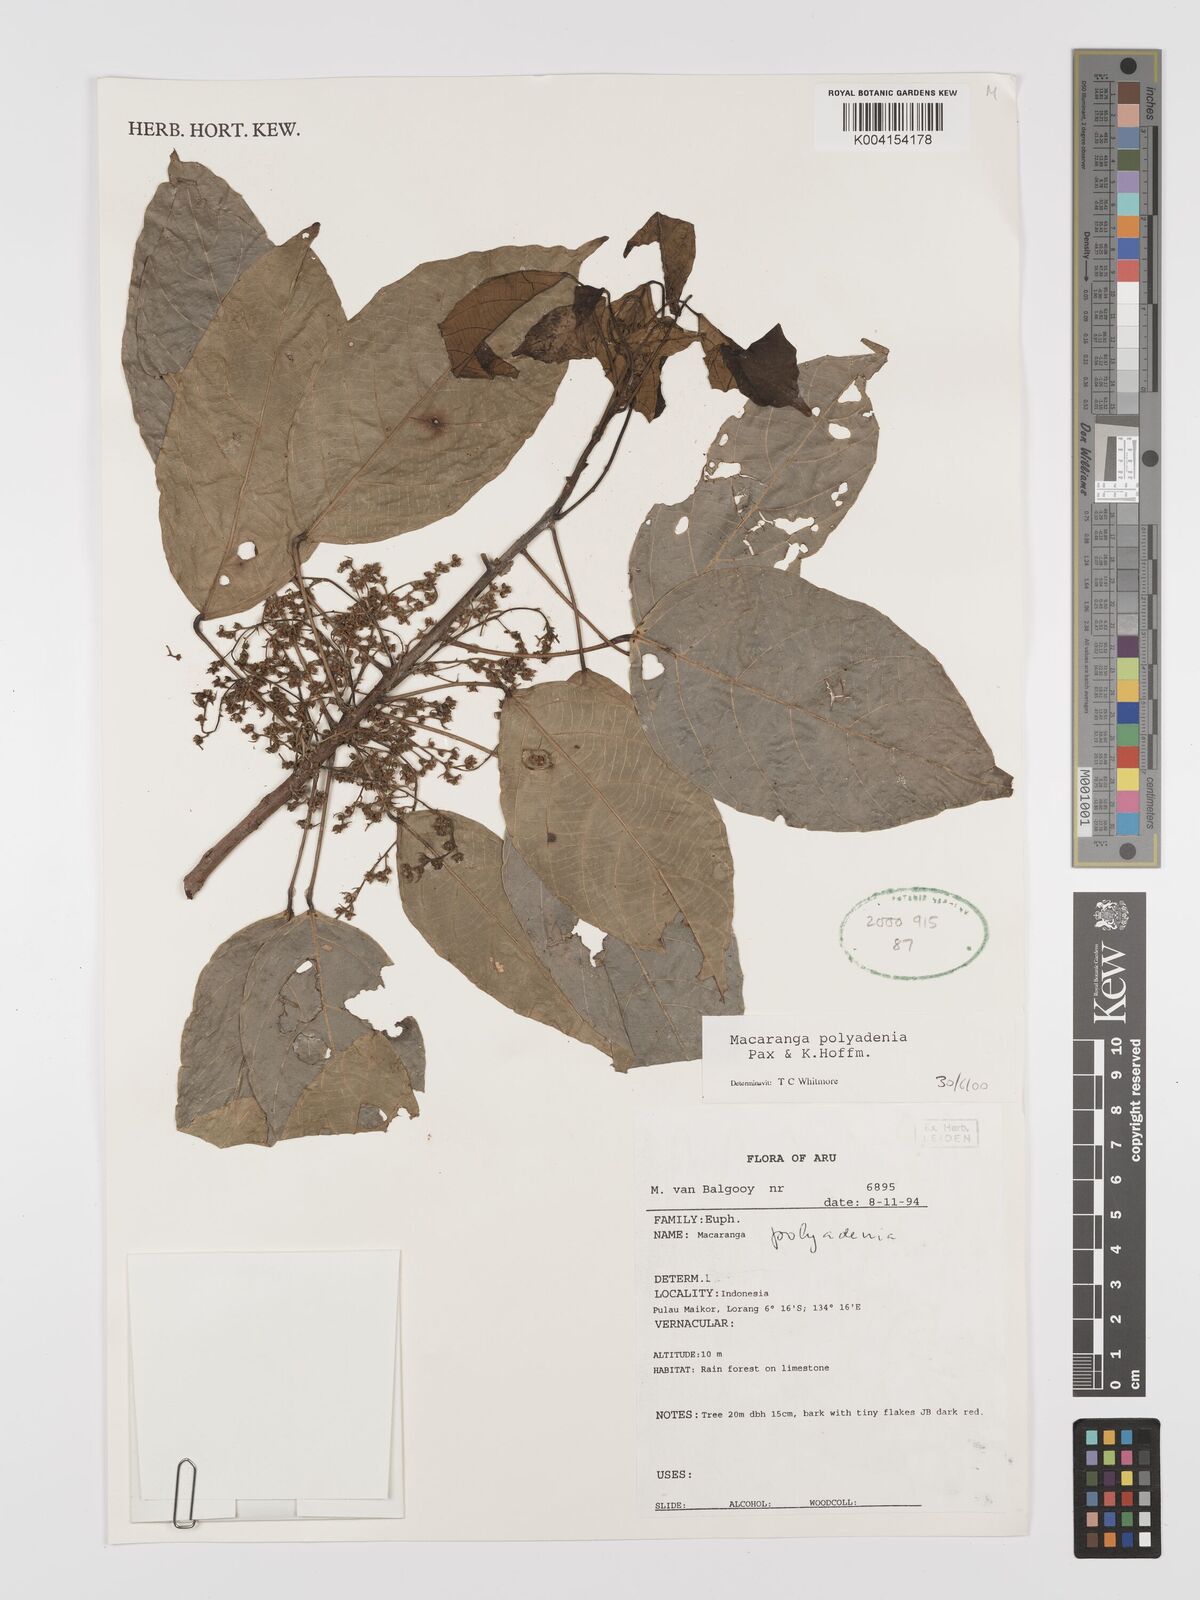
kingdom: Plantae
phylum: Tracheophyta
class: Magnoliopsida
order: Malpighiales
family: Euphorbiaceae
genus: Macaranga
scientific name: Macaranga polyadenia
